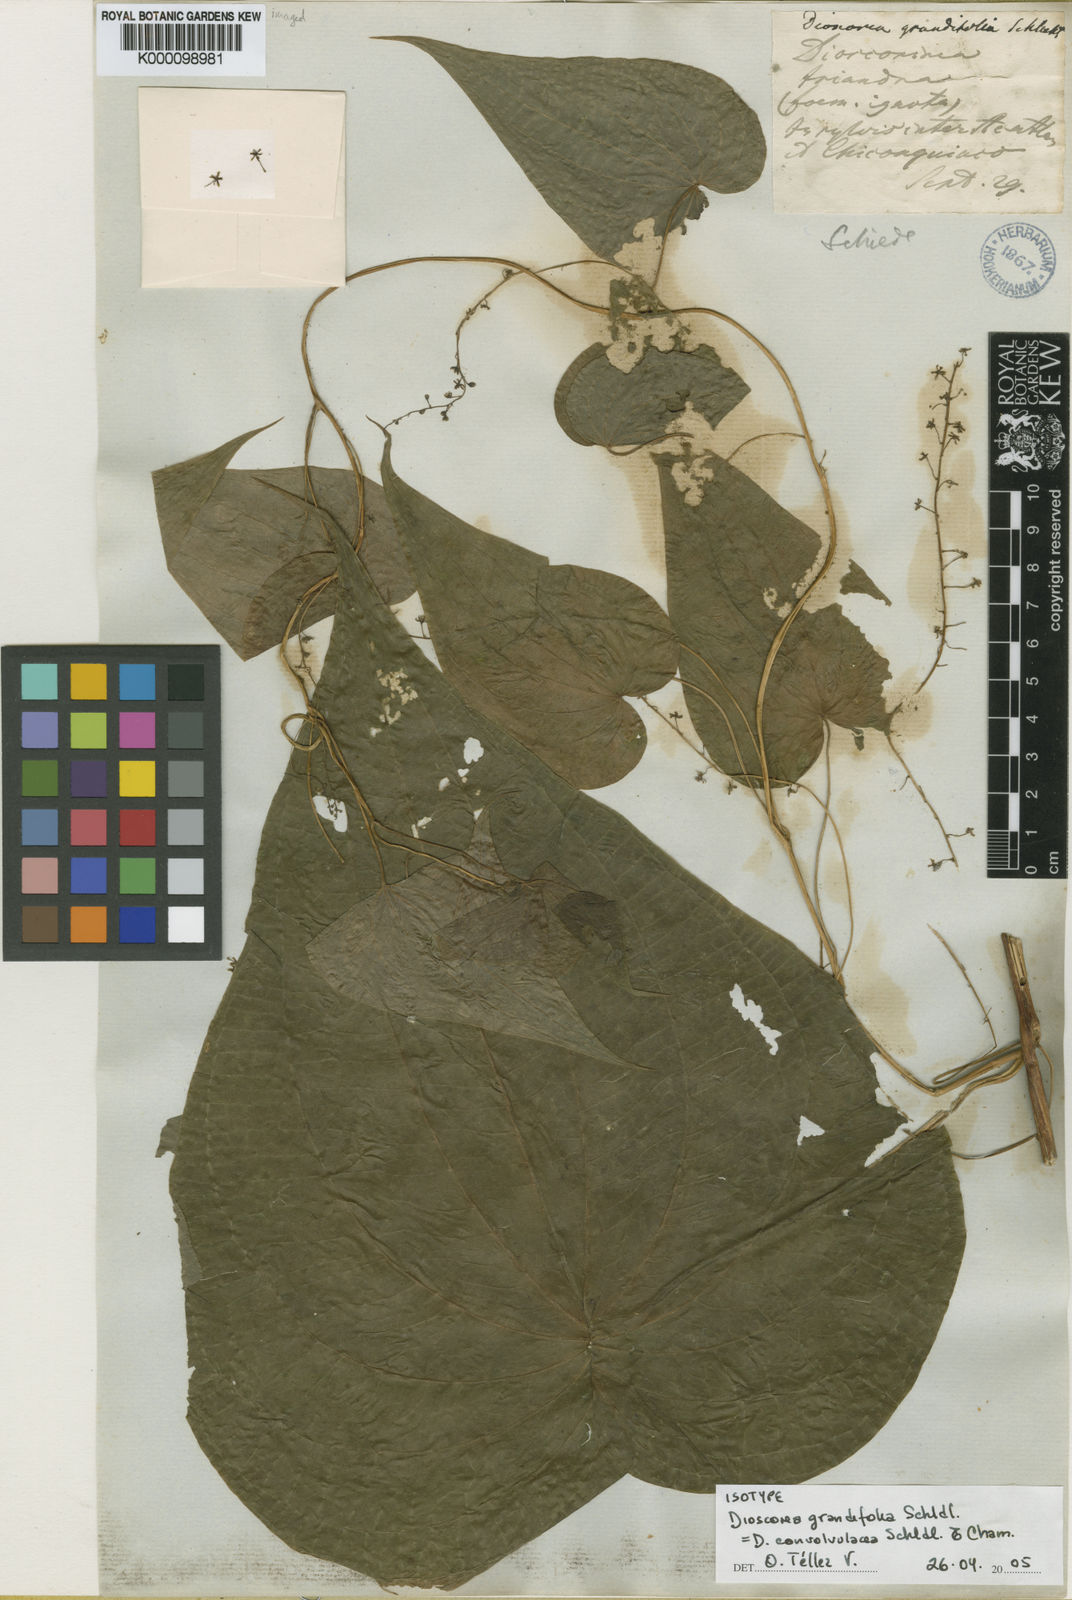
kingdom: Plantae
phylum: Tracheophyta
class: Liliopsida
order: Dioscoreales
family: Dioscoreaceae
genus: Dioscorea
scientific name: Dioscorea convolvulacea
